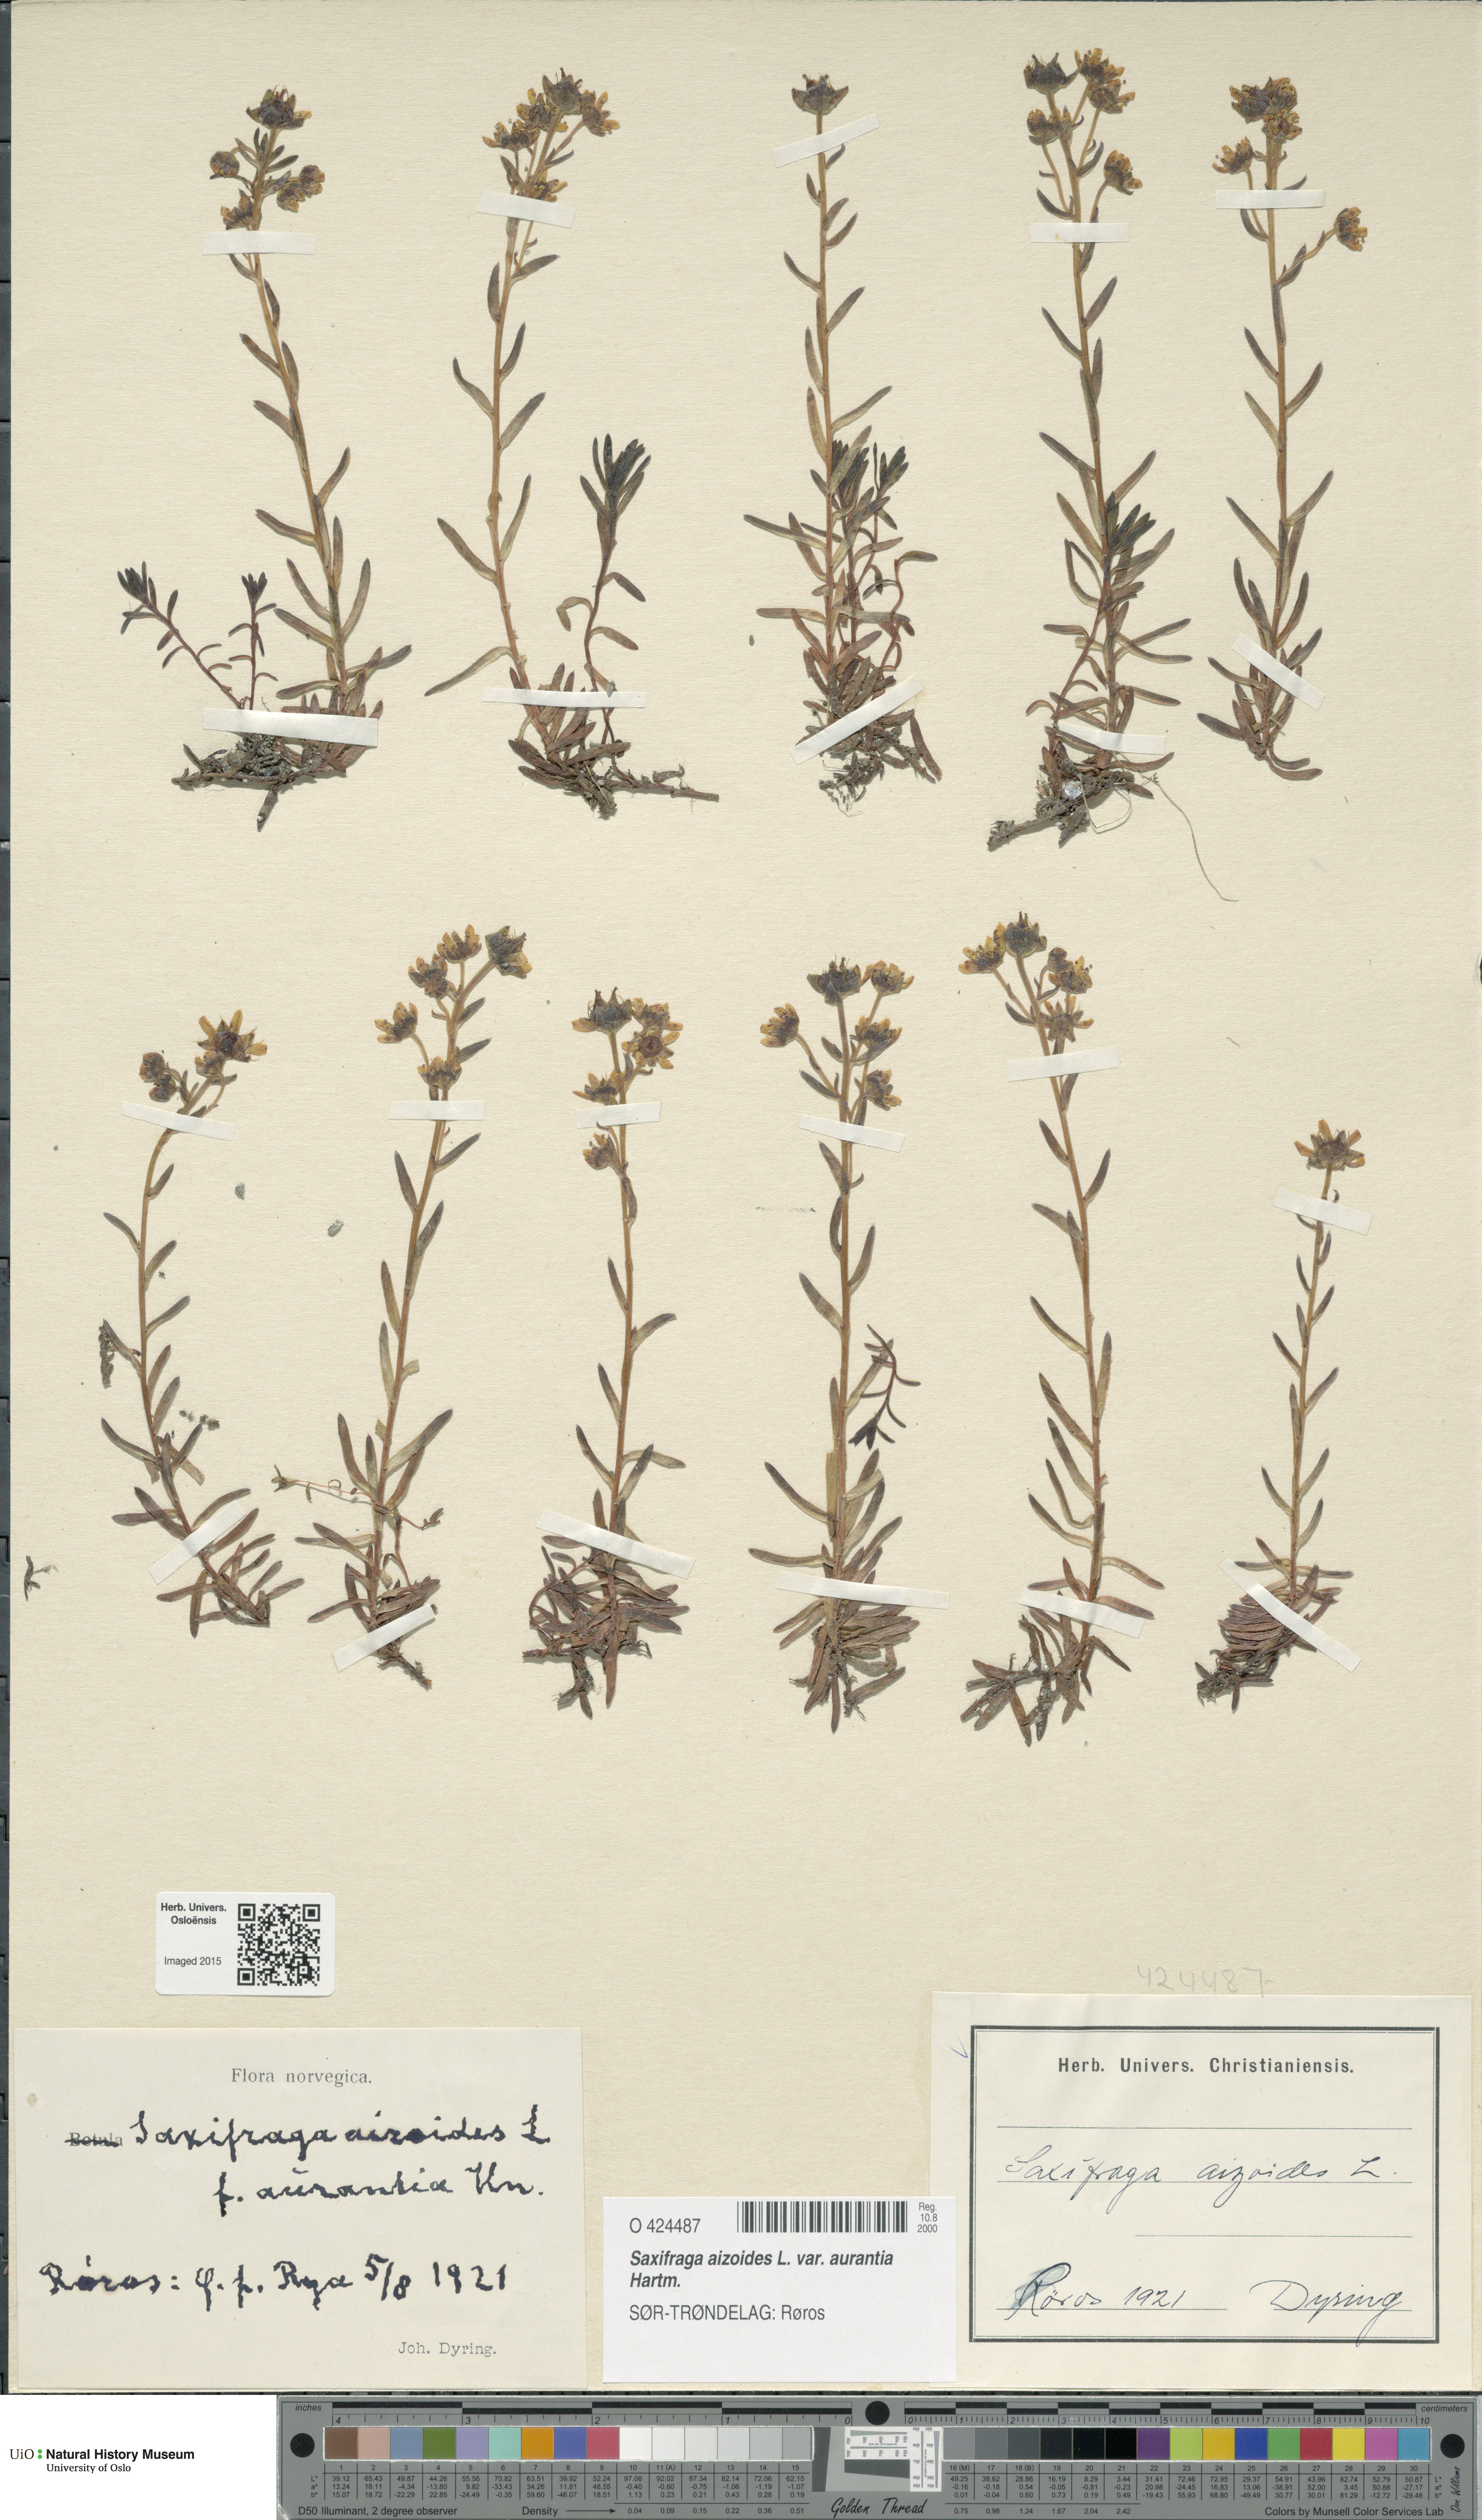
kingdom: Plantae
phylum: Tracheophyta
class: Magnoliopsida
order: Saxifragales
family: Saxifragaceae
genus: Saxifraga
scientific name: Saxifraga aizoides
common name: Yellow mountain saxifrage
